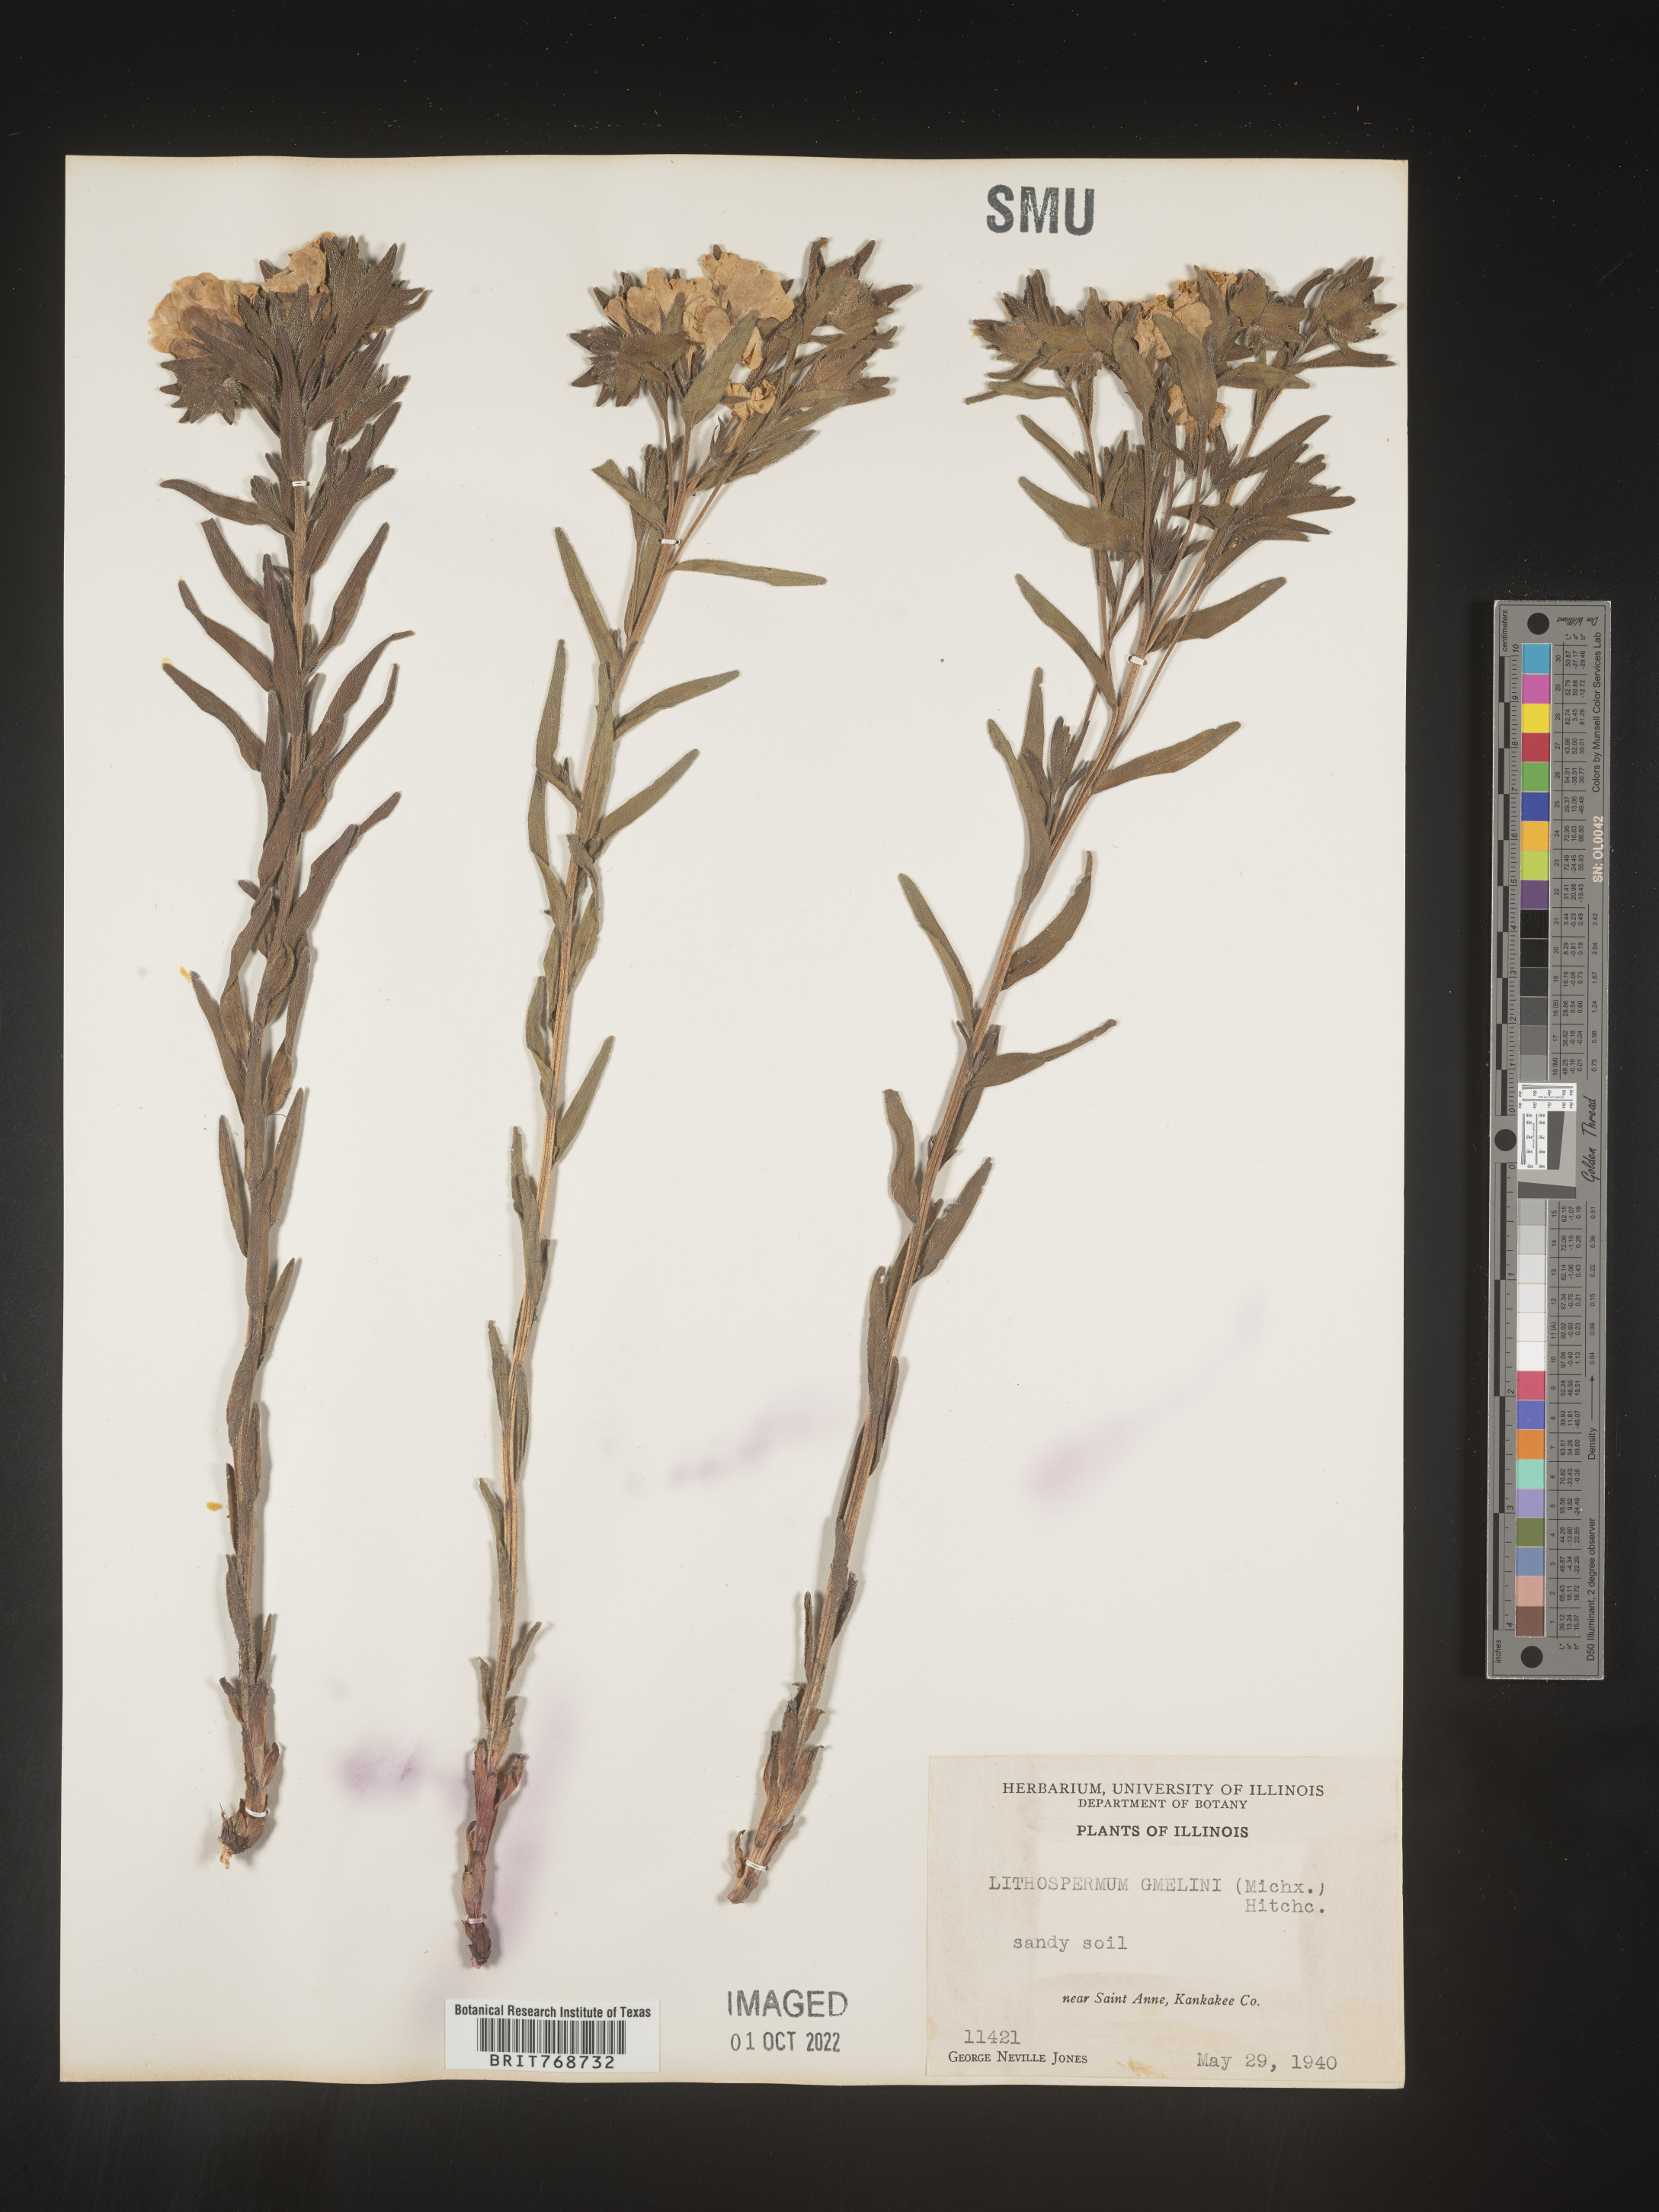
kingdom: Plantae
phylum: Tracheophyta
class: Magnoliopsida
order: Boraginales
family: Boraginaceae
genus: Lithospermum
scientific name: Lithospermum caroliniense
